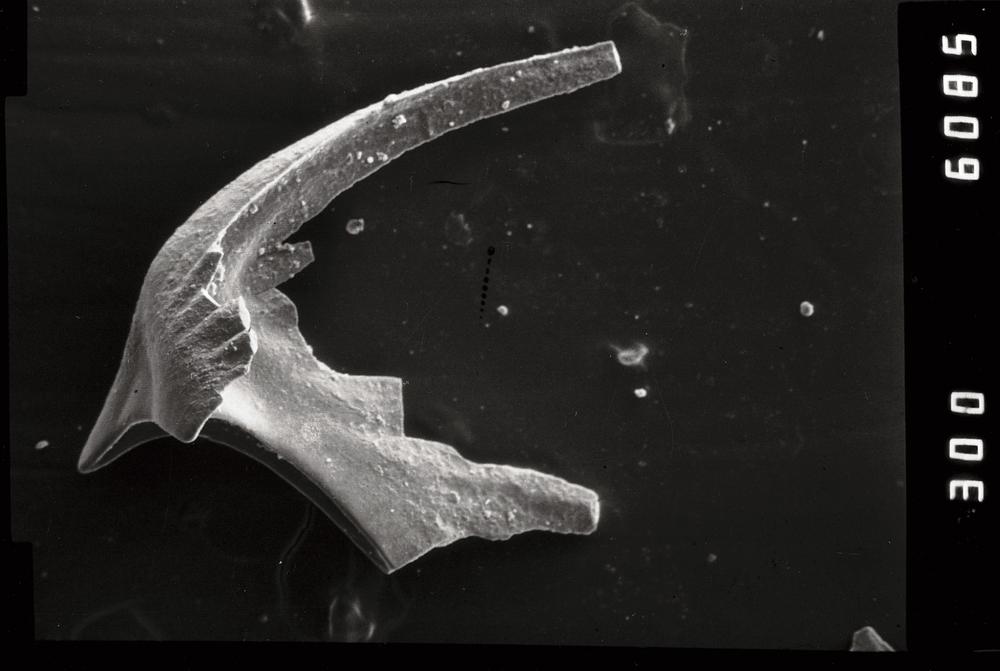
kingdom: Animalia
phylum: Chordata
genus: Periodon
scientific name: Periodon aculeatus
